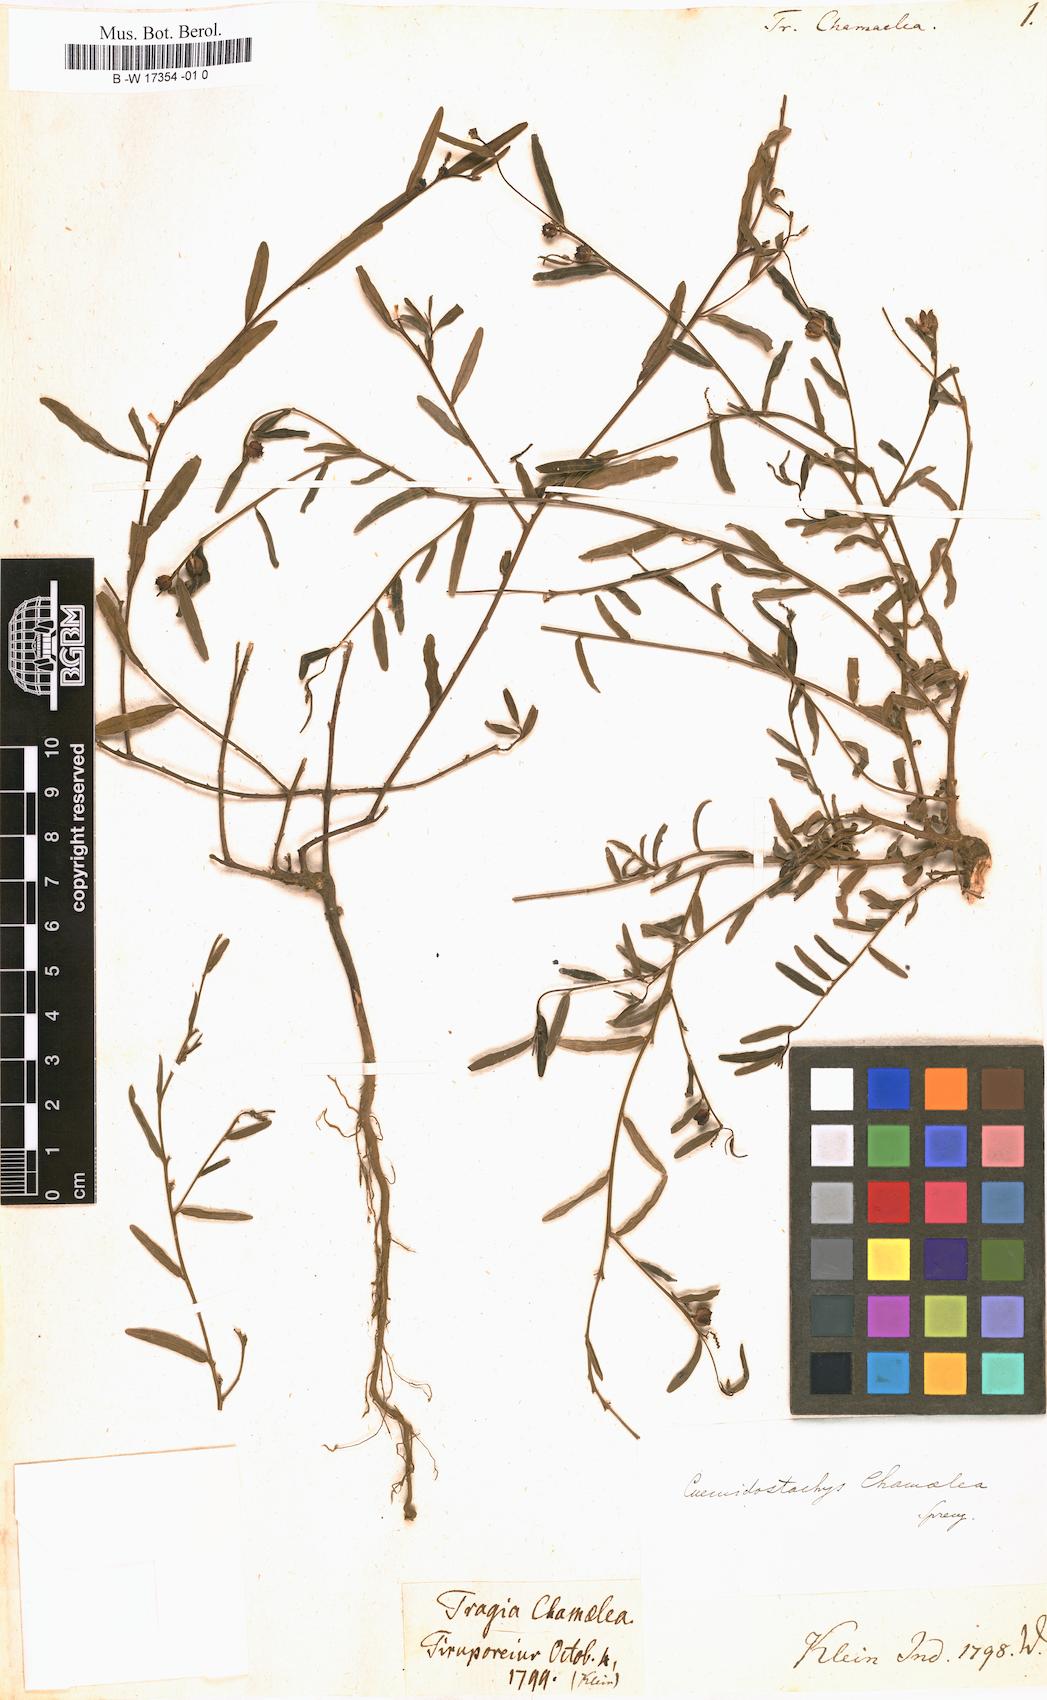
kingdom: Plantae
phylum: Tracheophyta
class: Magnoliopsida
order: Malpighiales
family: Euphorbiaceae
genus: Microstachys
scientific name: Microstachys chamaelea
